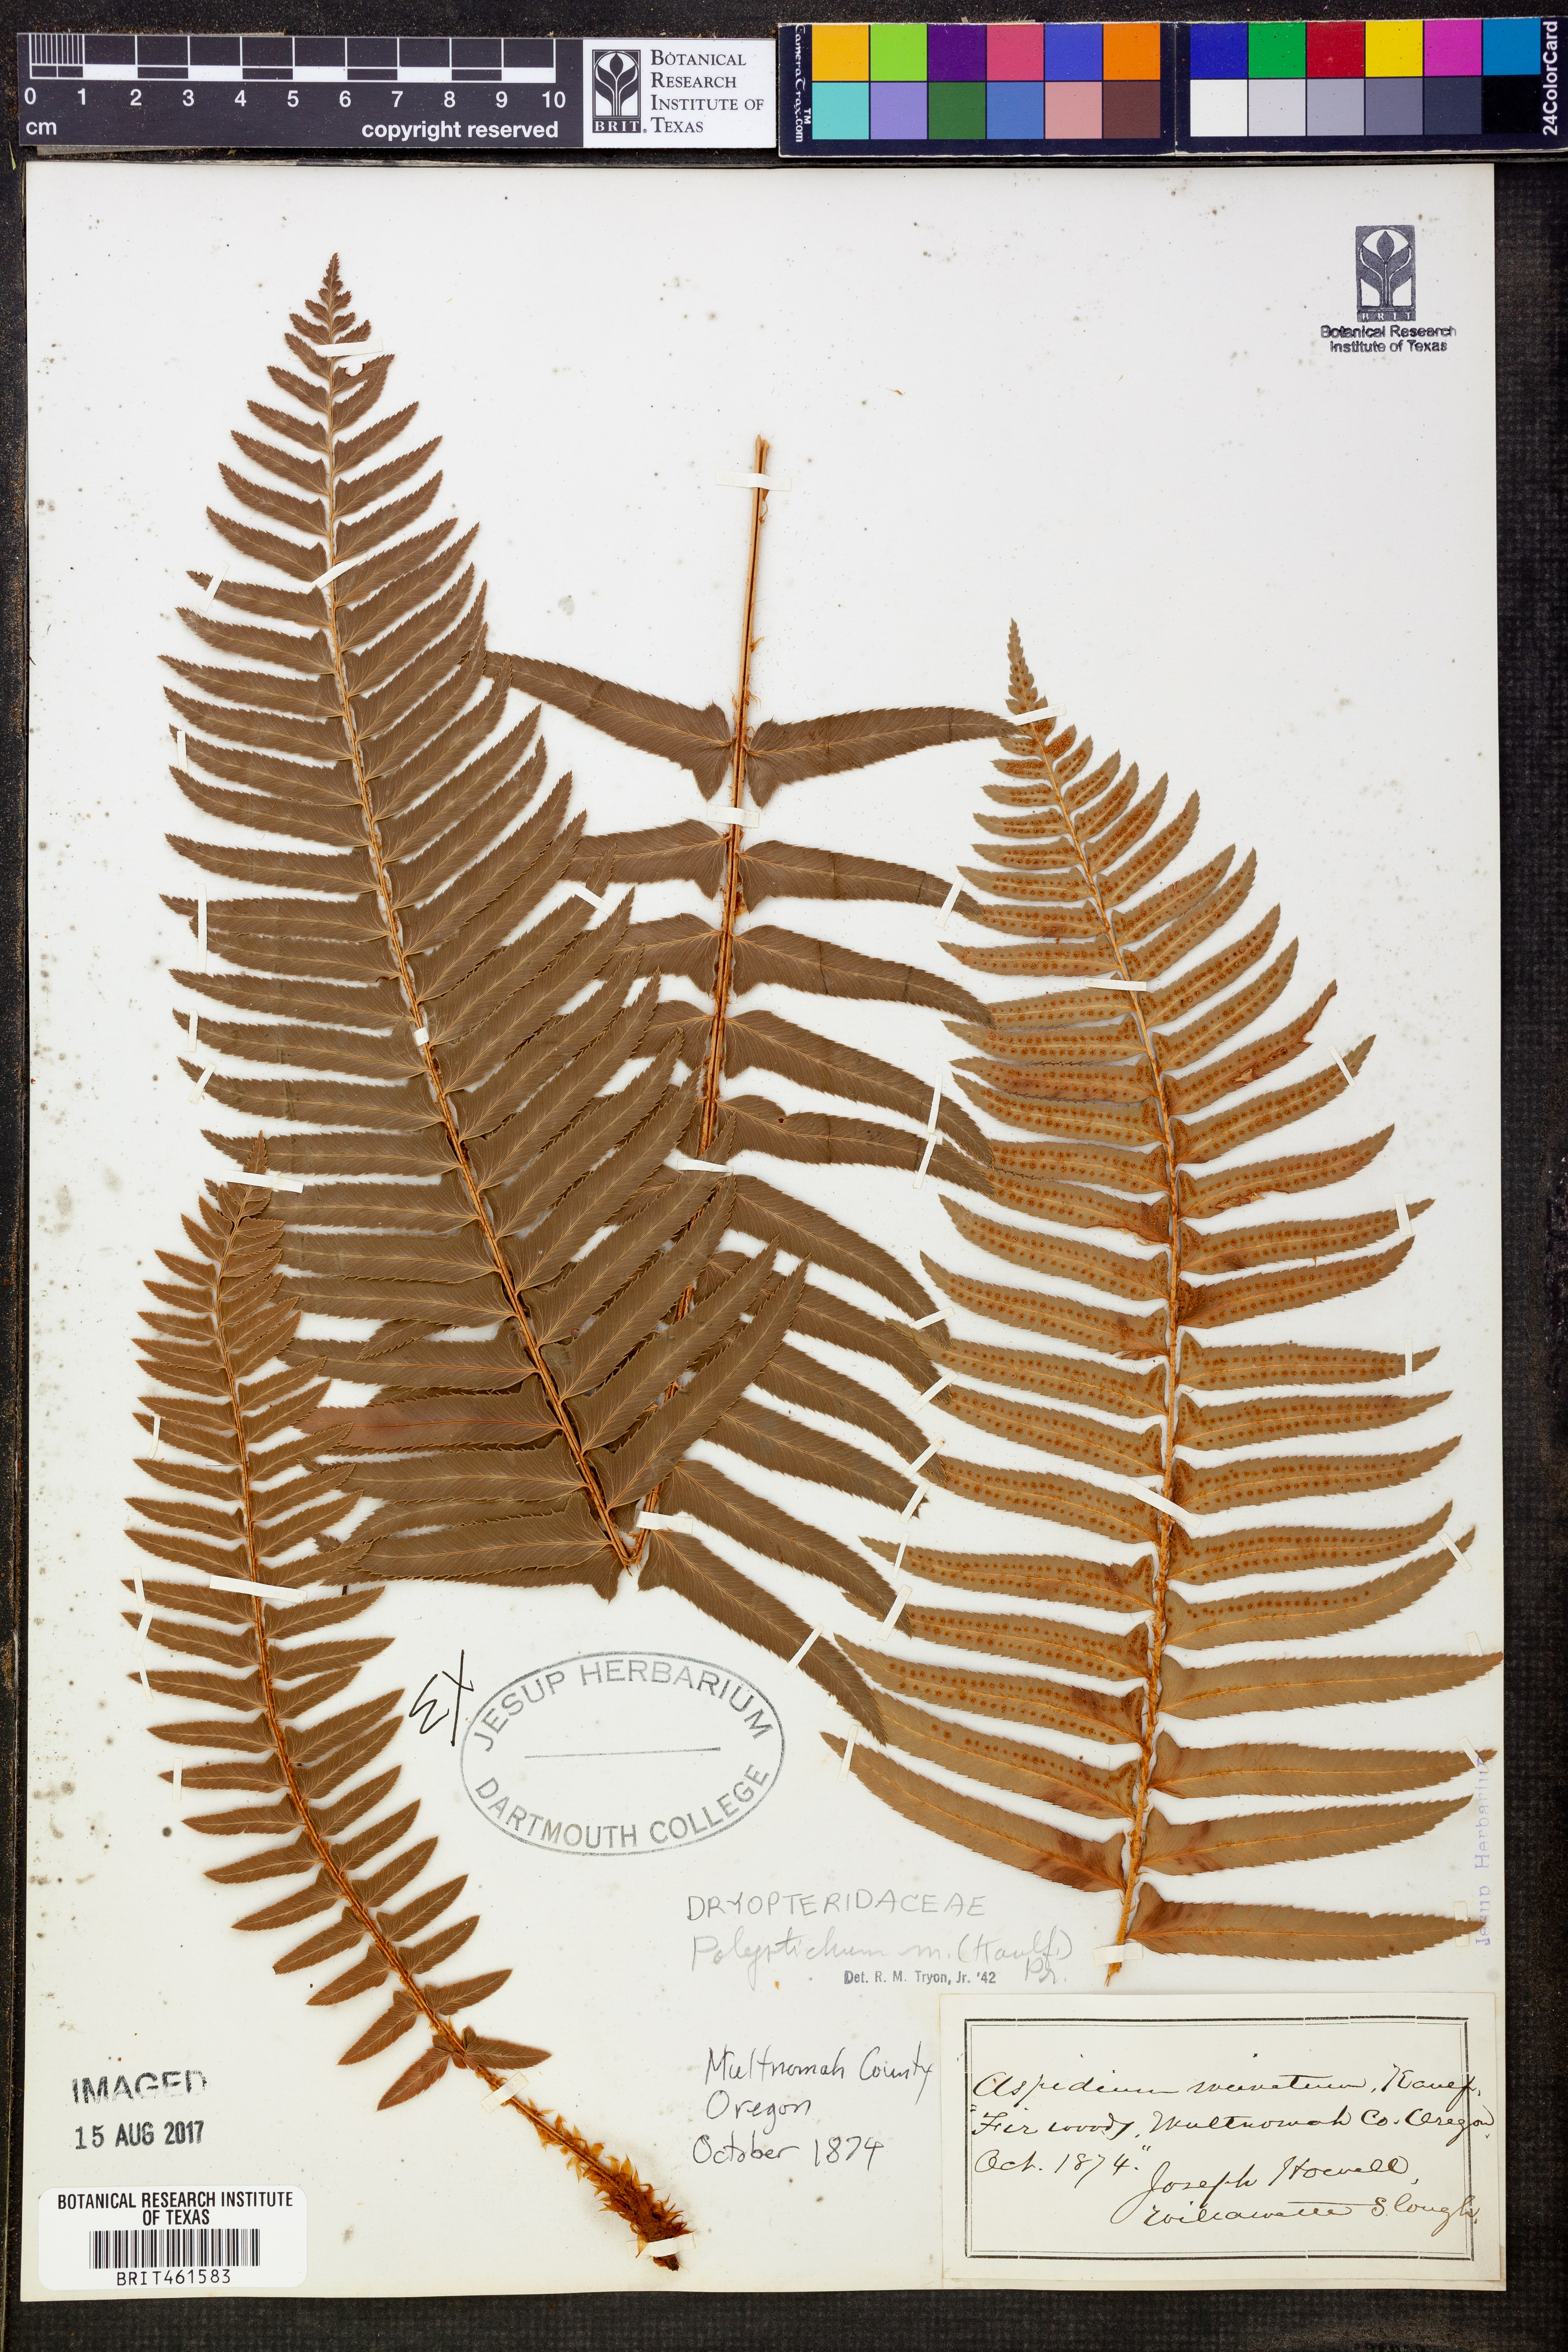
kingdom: Plantae
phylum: Tracheophyta
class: Polypodiopsida
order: Polypodiales
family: Dryopteridaceae
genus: Polystichum
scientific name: Polystichum munitum
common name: Western sword-fern
